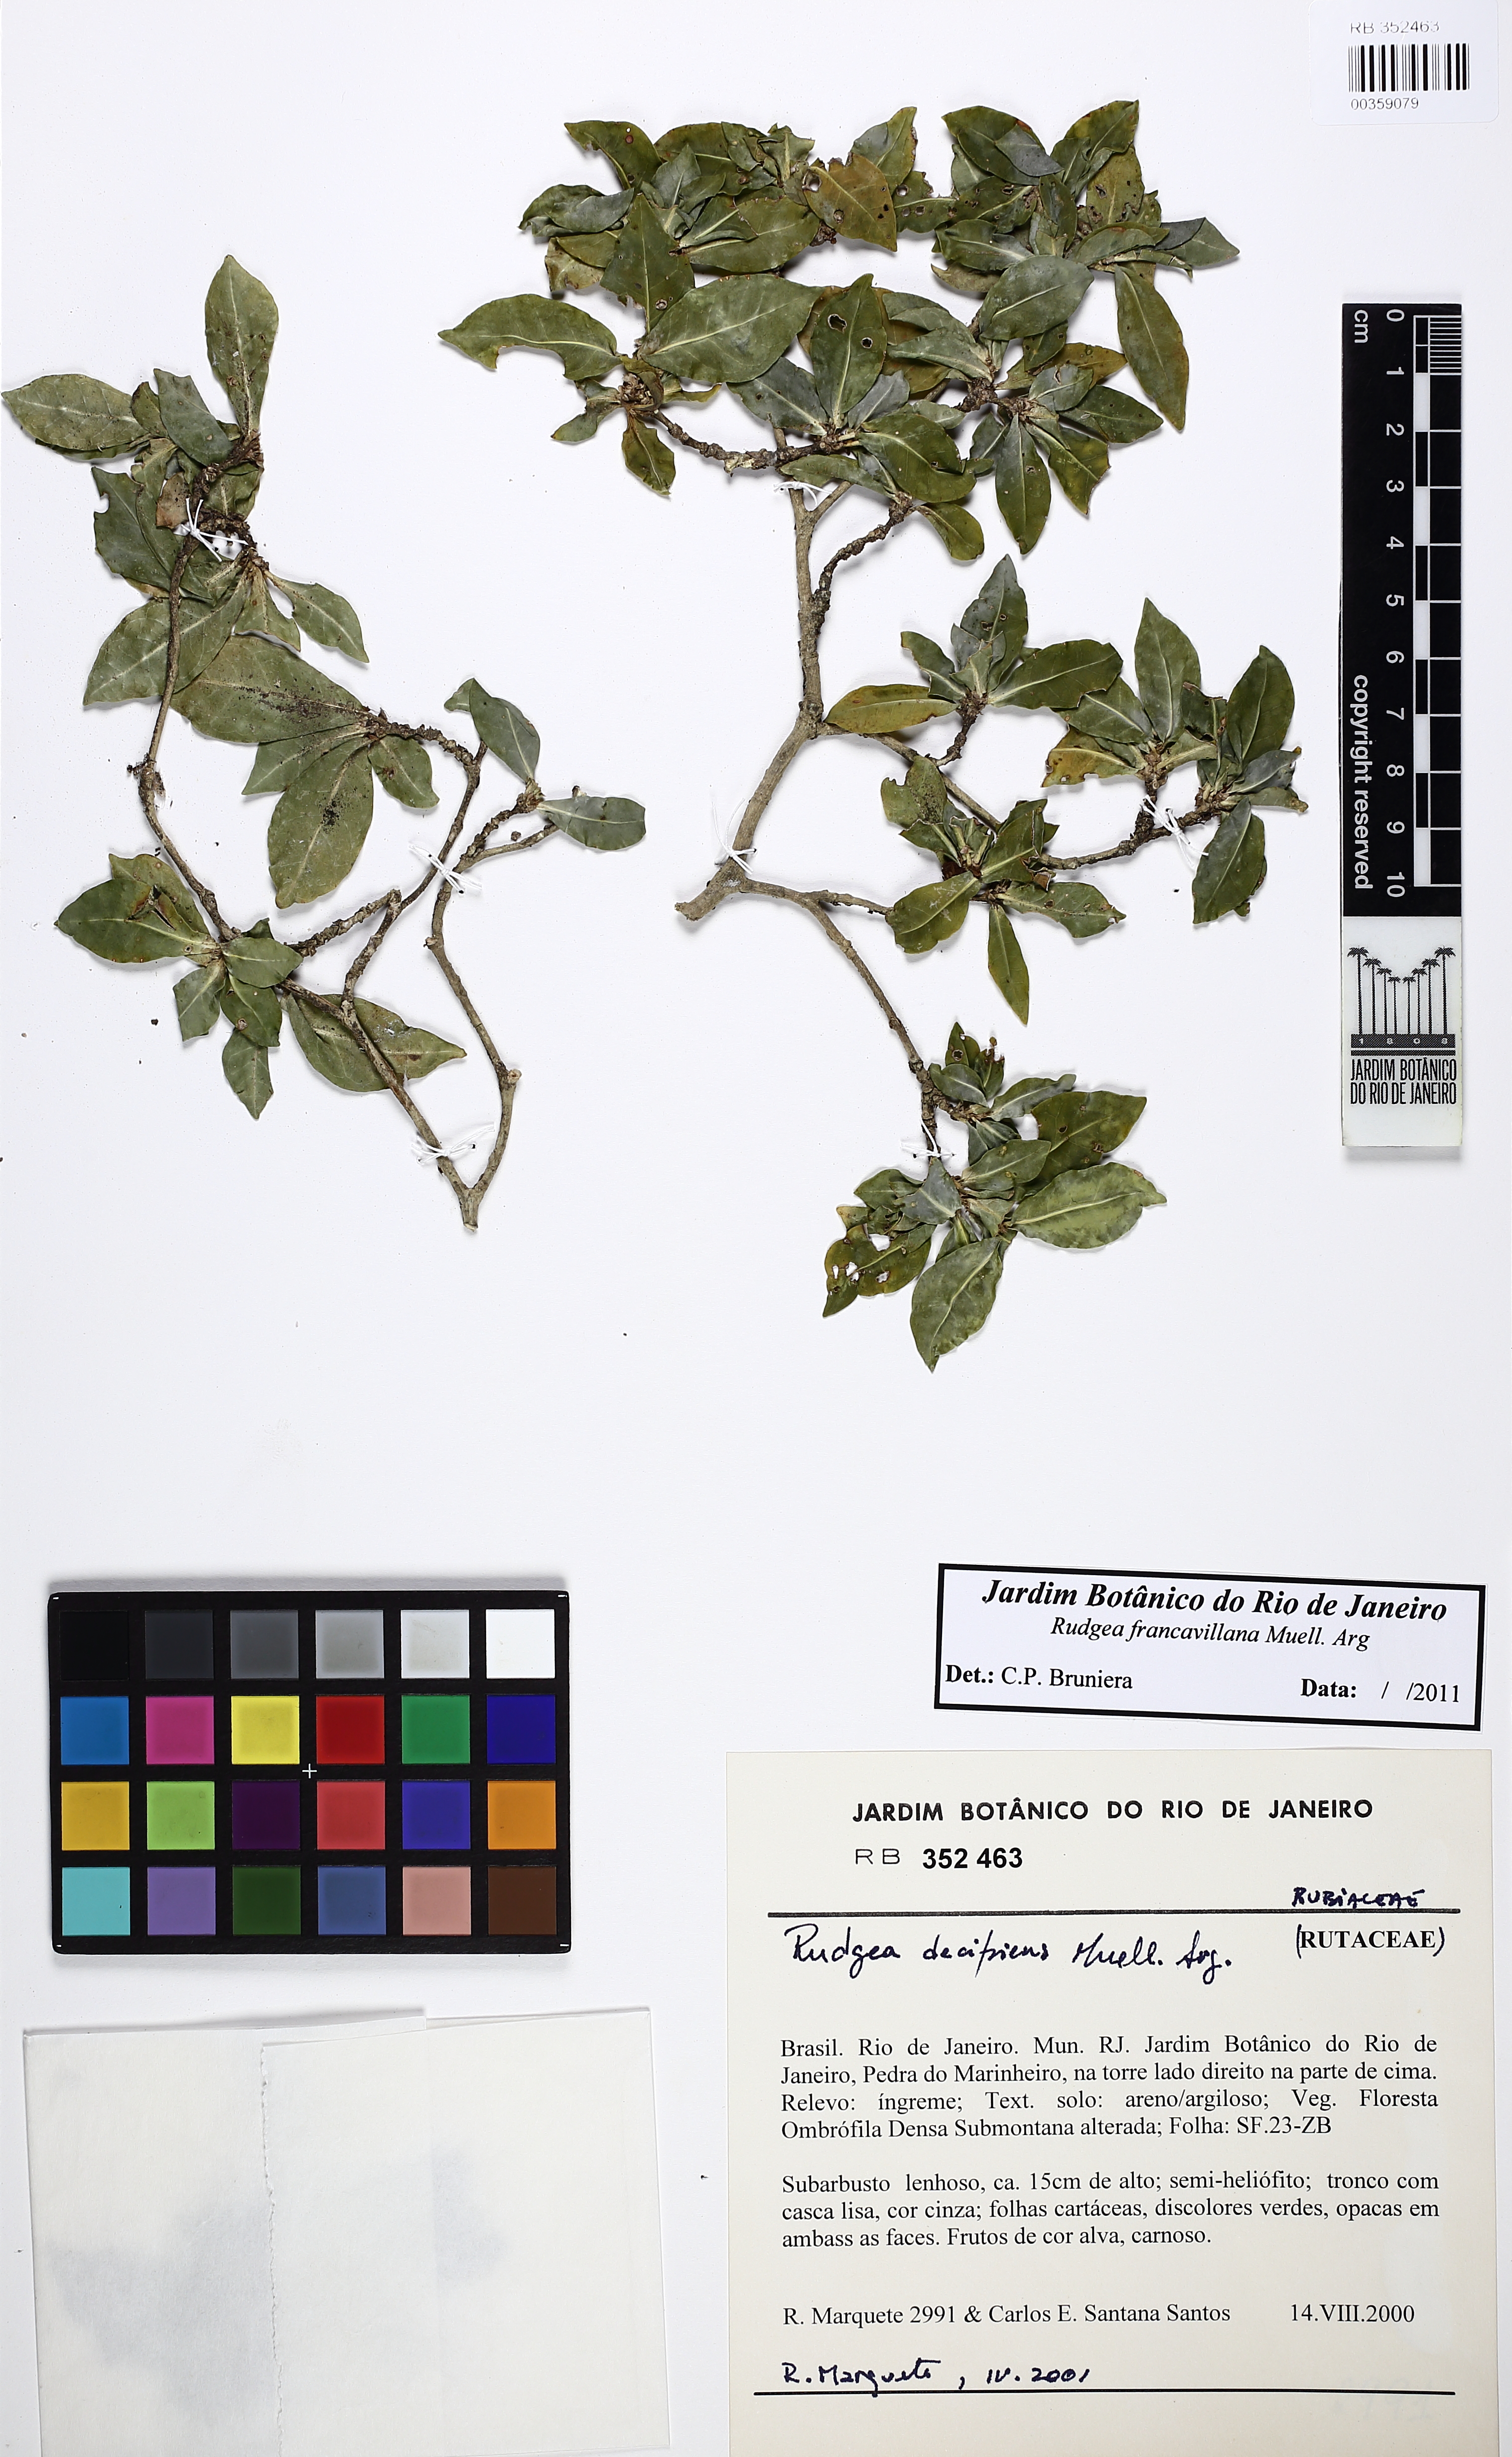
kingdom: Plantae
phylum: Tracheophyta
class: Magnoliopsida
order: Gentianales
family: Rubiaceae
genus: Rudgea
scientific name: Rudgea francavillana
